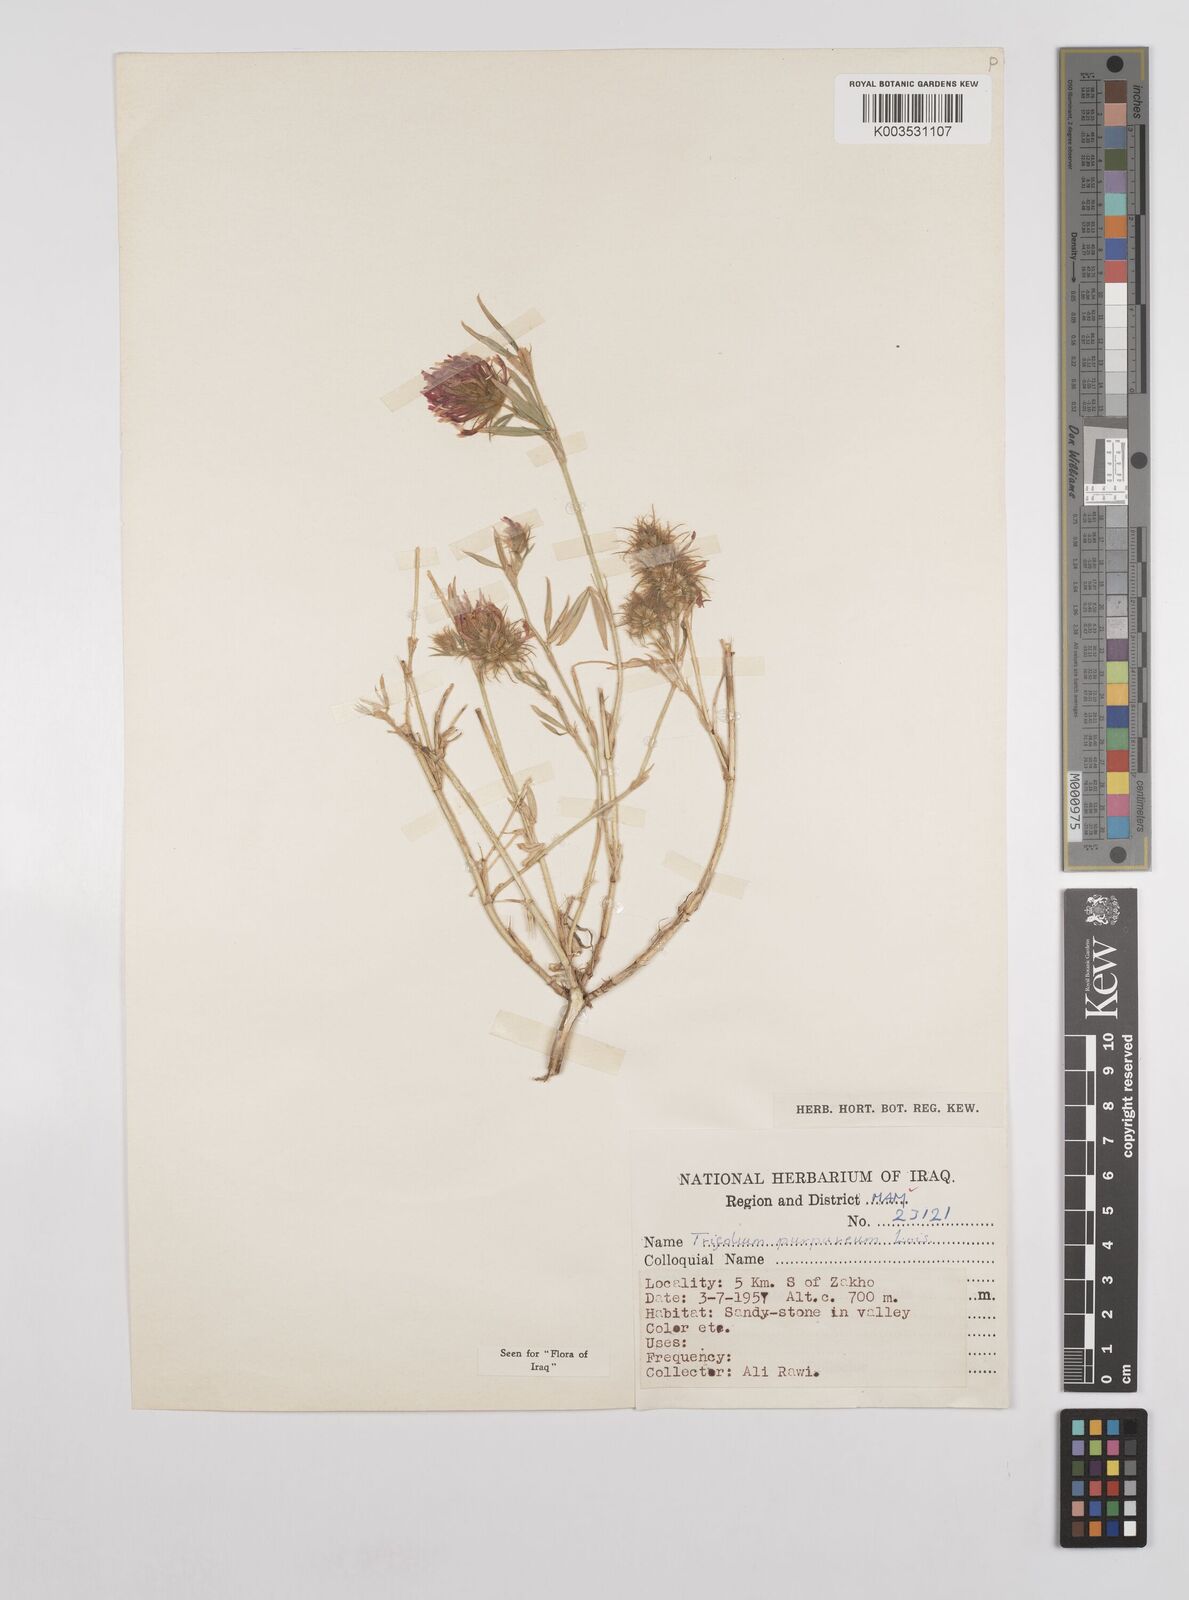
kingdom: Plantae
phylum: Tracheophyta
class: Magnoliopsida
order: Fabales
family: Fabaceae
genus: Trifolium
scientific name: Trifolium purpureum
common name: Purple clover
